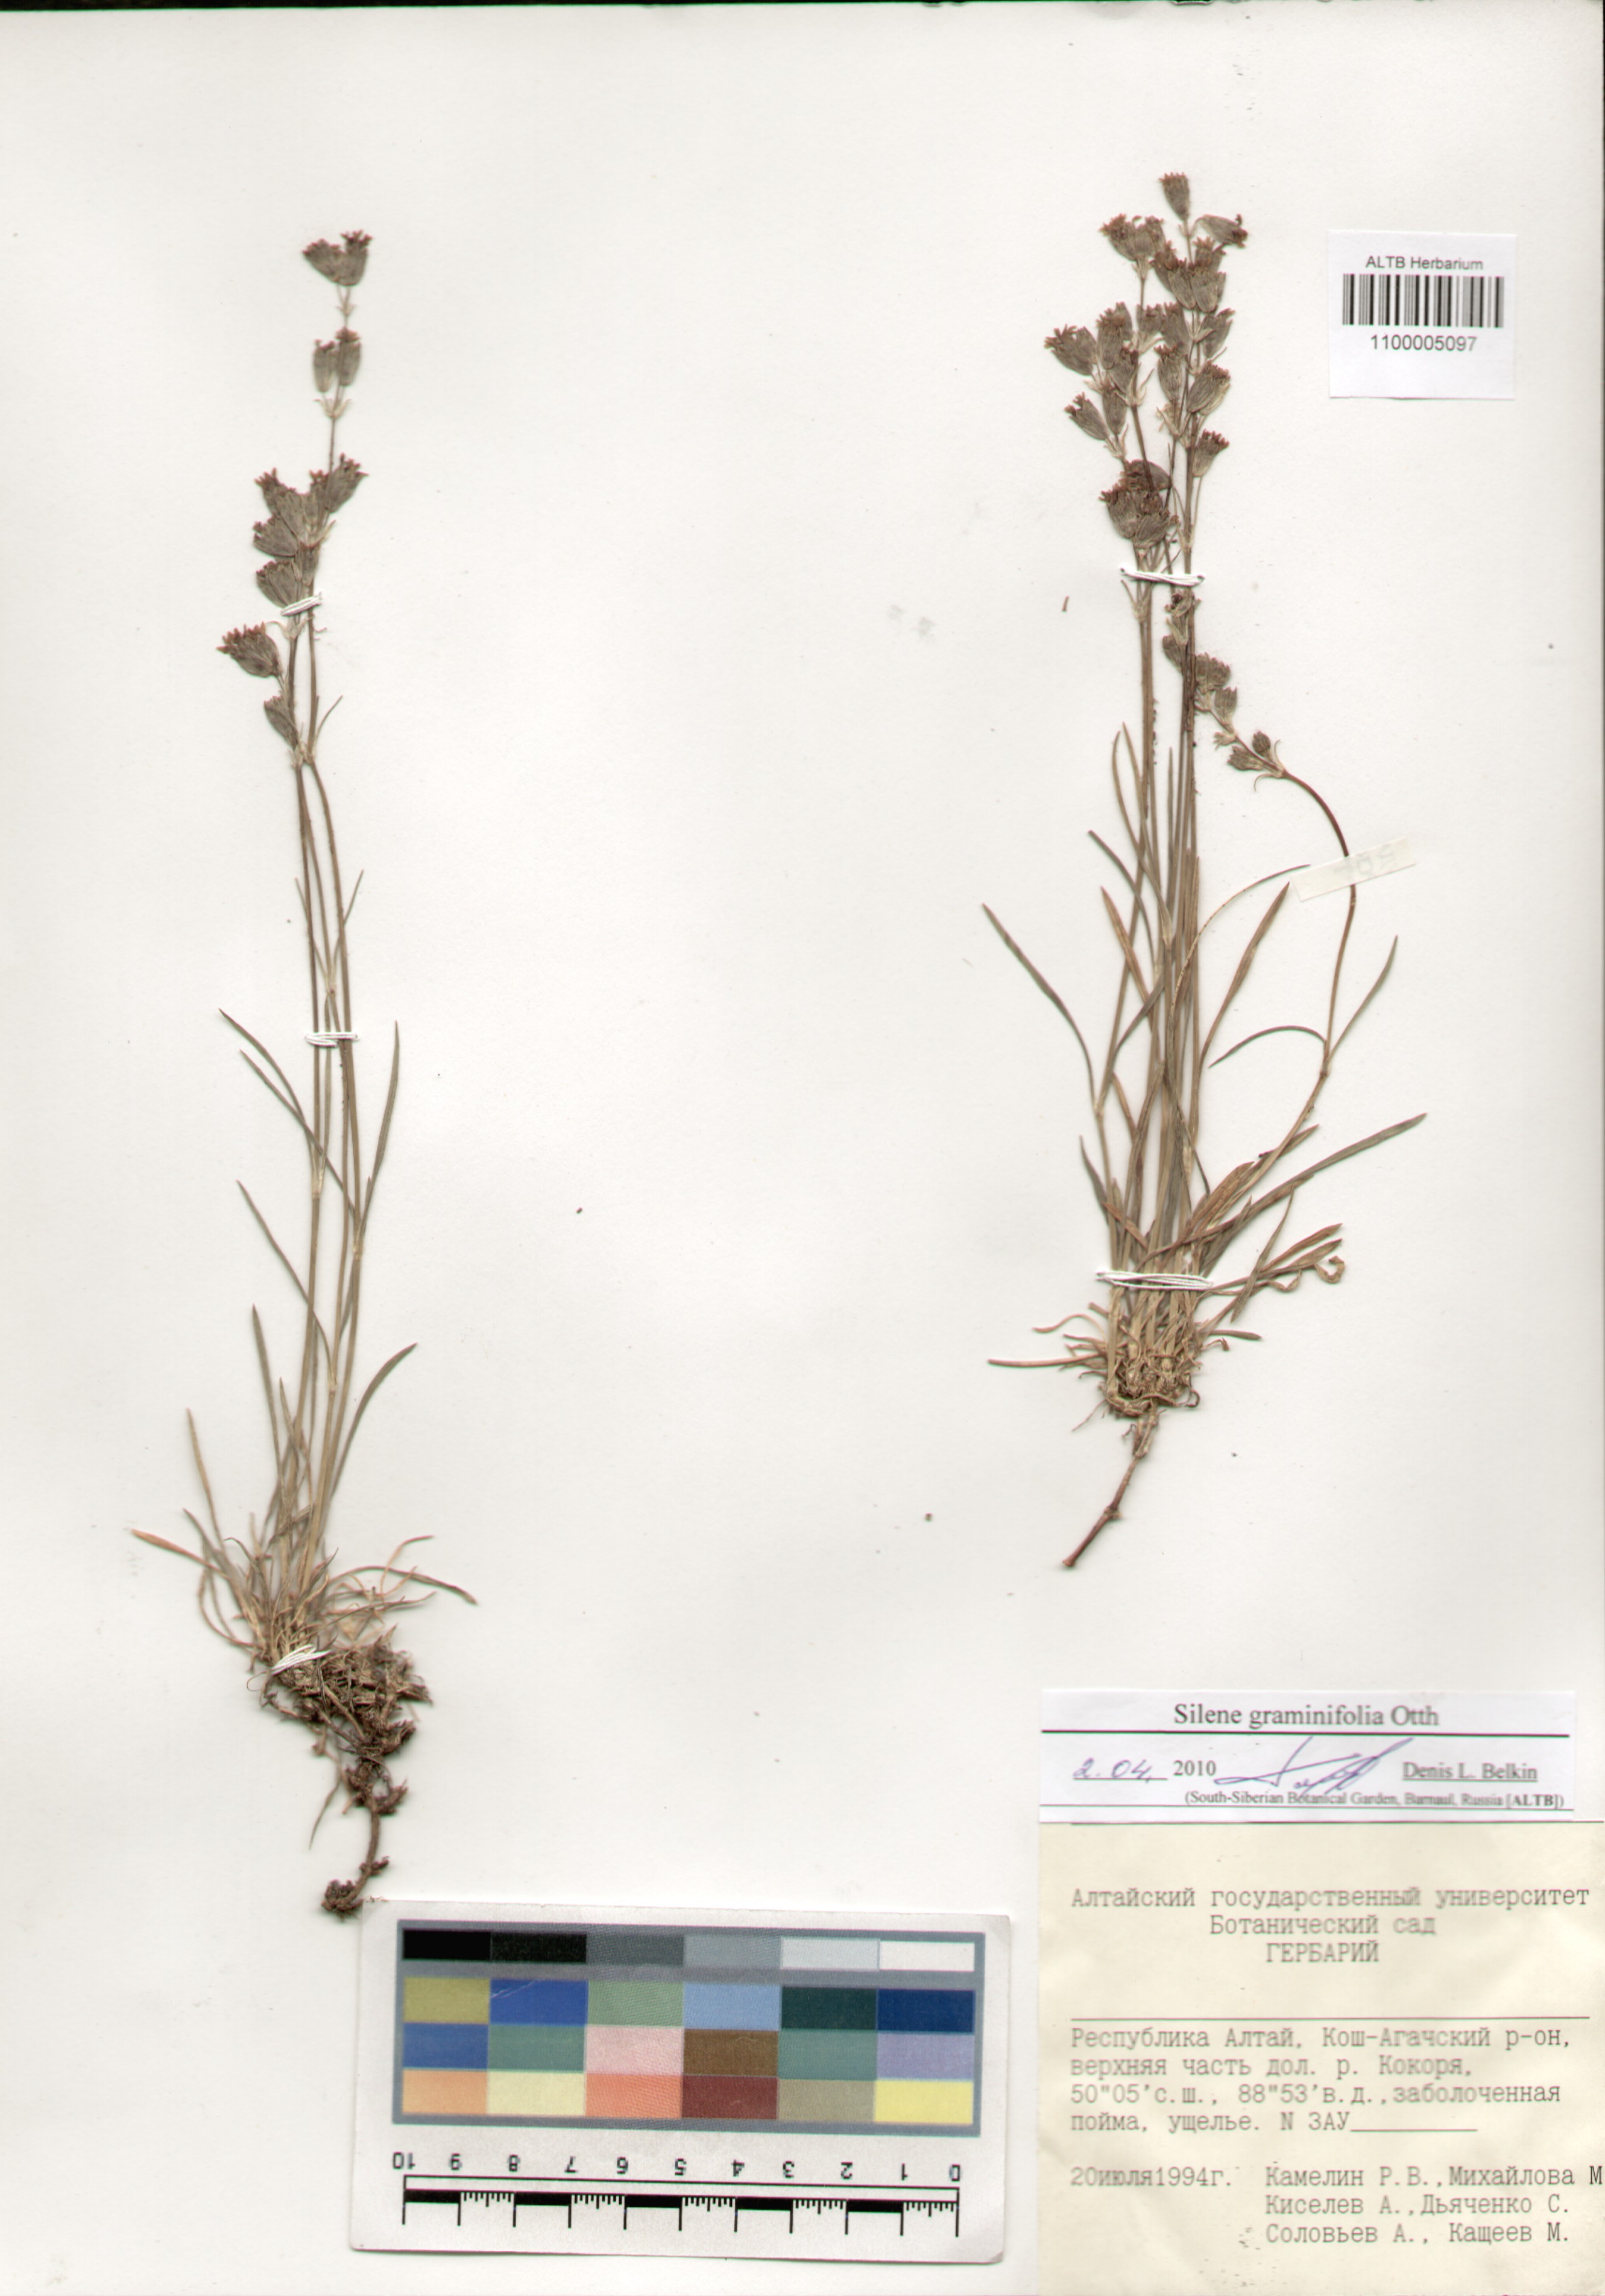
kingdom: Plantae
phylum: Tracheophyta
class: Magnoliopsida
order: Caryophyllales
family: Caryophyllaceae
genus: Silene
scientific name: Silene graminifolia
